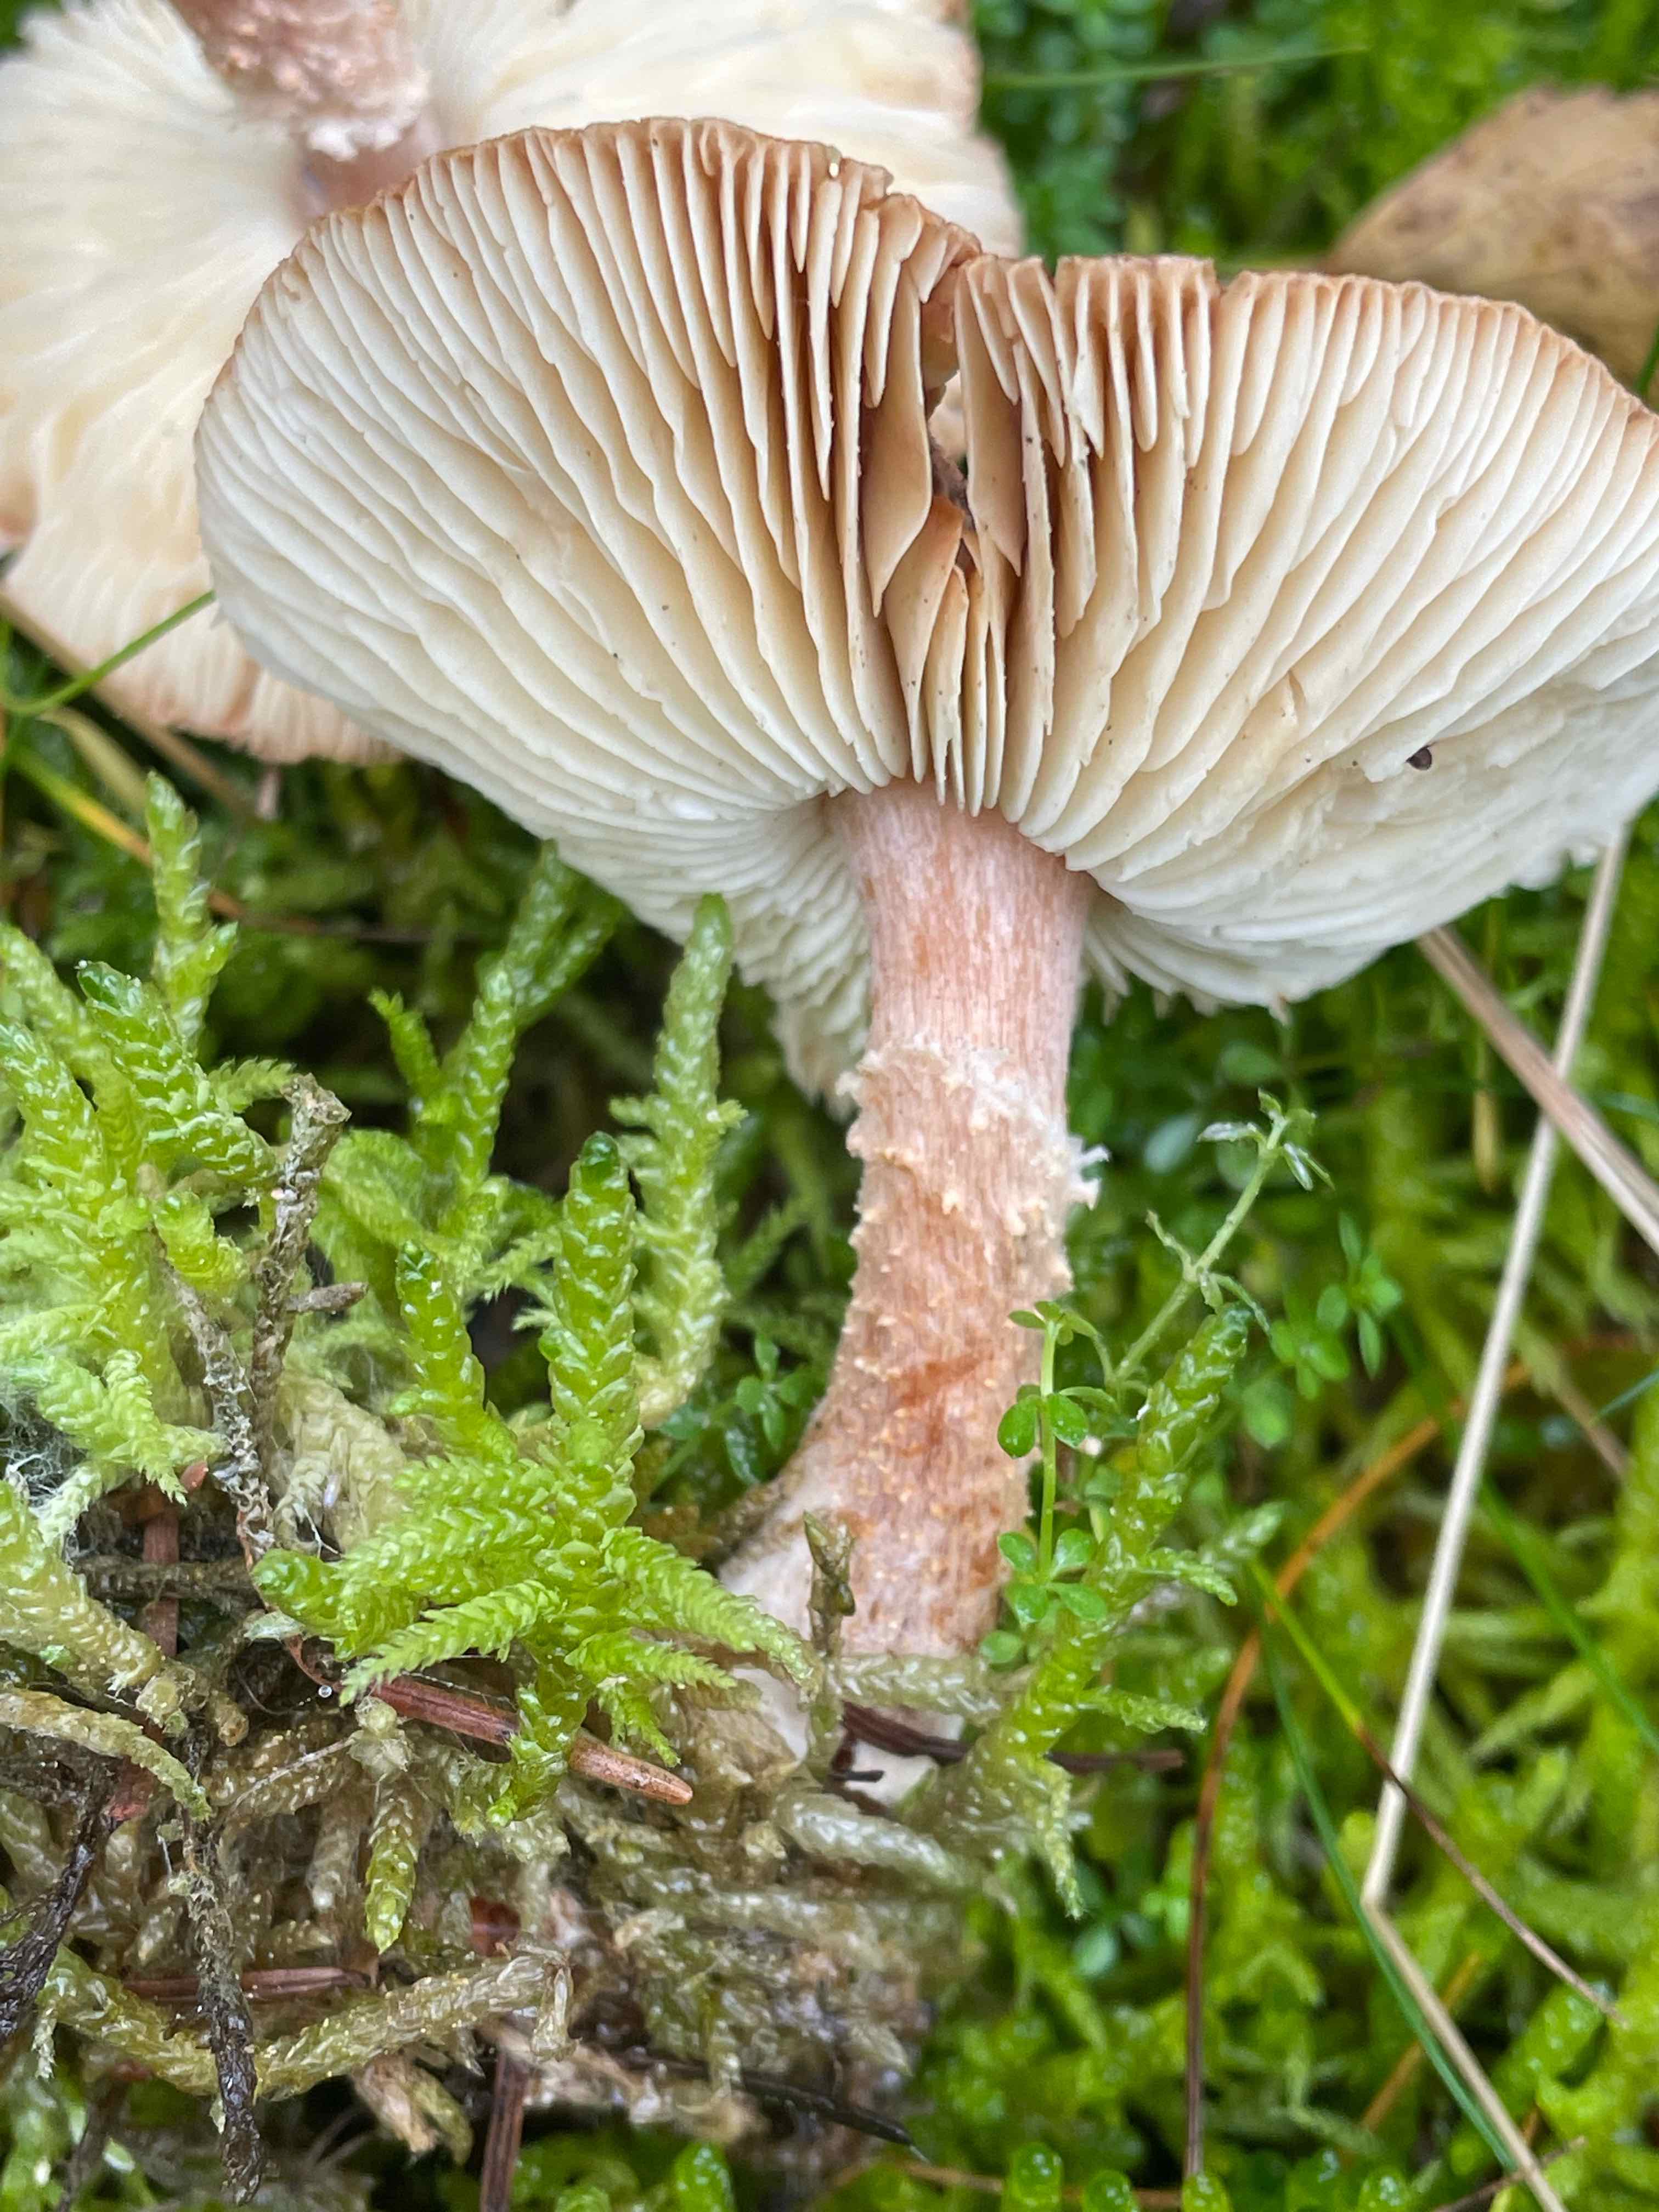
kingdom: Fungi
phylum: Basidiomycota
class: Agaricomycetes
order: Agaricales
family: Agaricaceae
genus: Cystodermella
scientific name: Cystodermella
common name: grynhat
